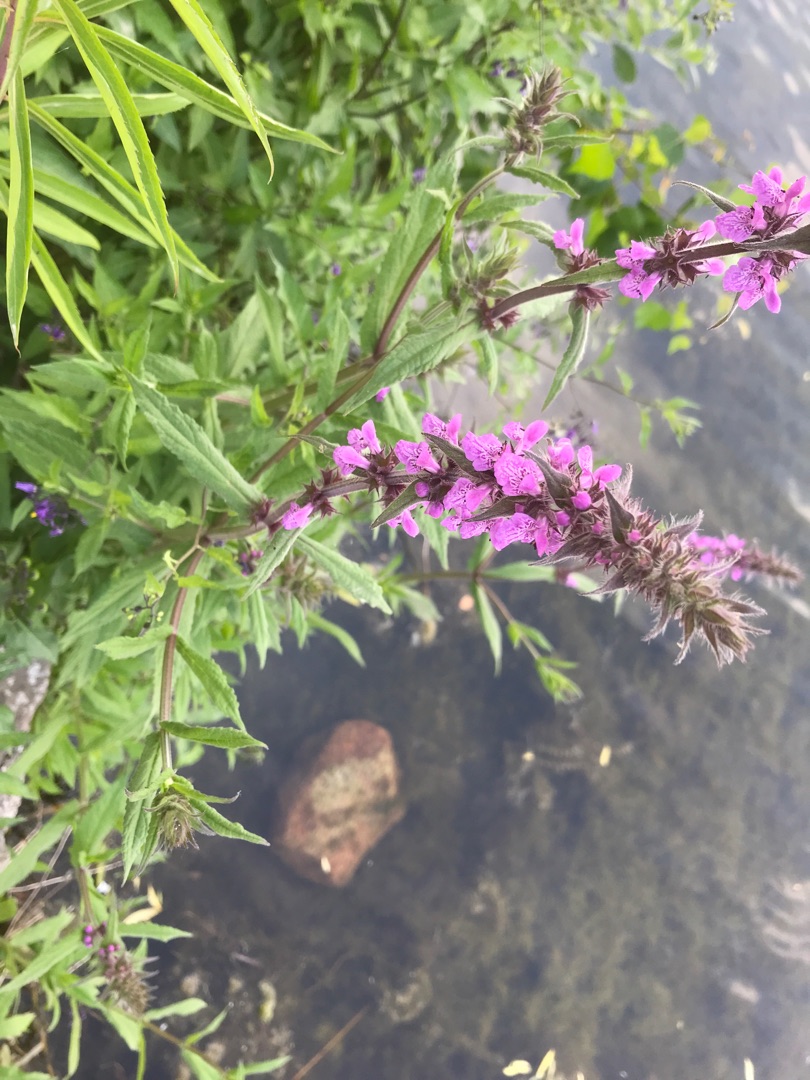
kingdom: Plantae
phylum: Tracheophyta
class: Magnoliopsida
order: Lamiales
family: Lamiaceae
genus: Stachys
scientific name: Stachys palustris
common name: Kær-galtetand
